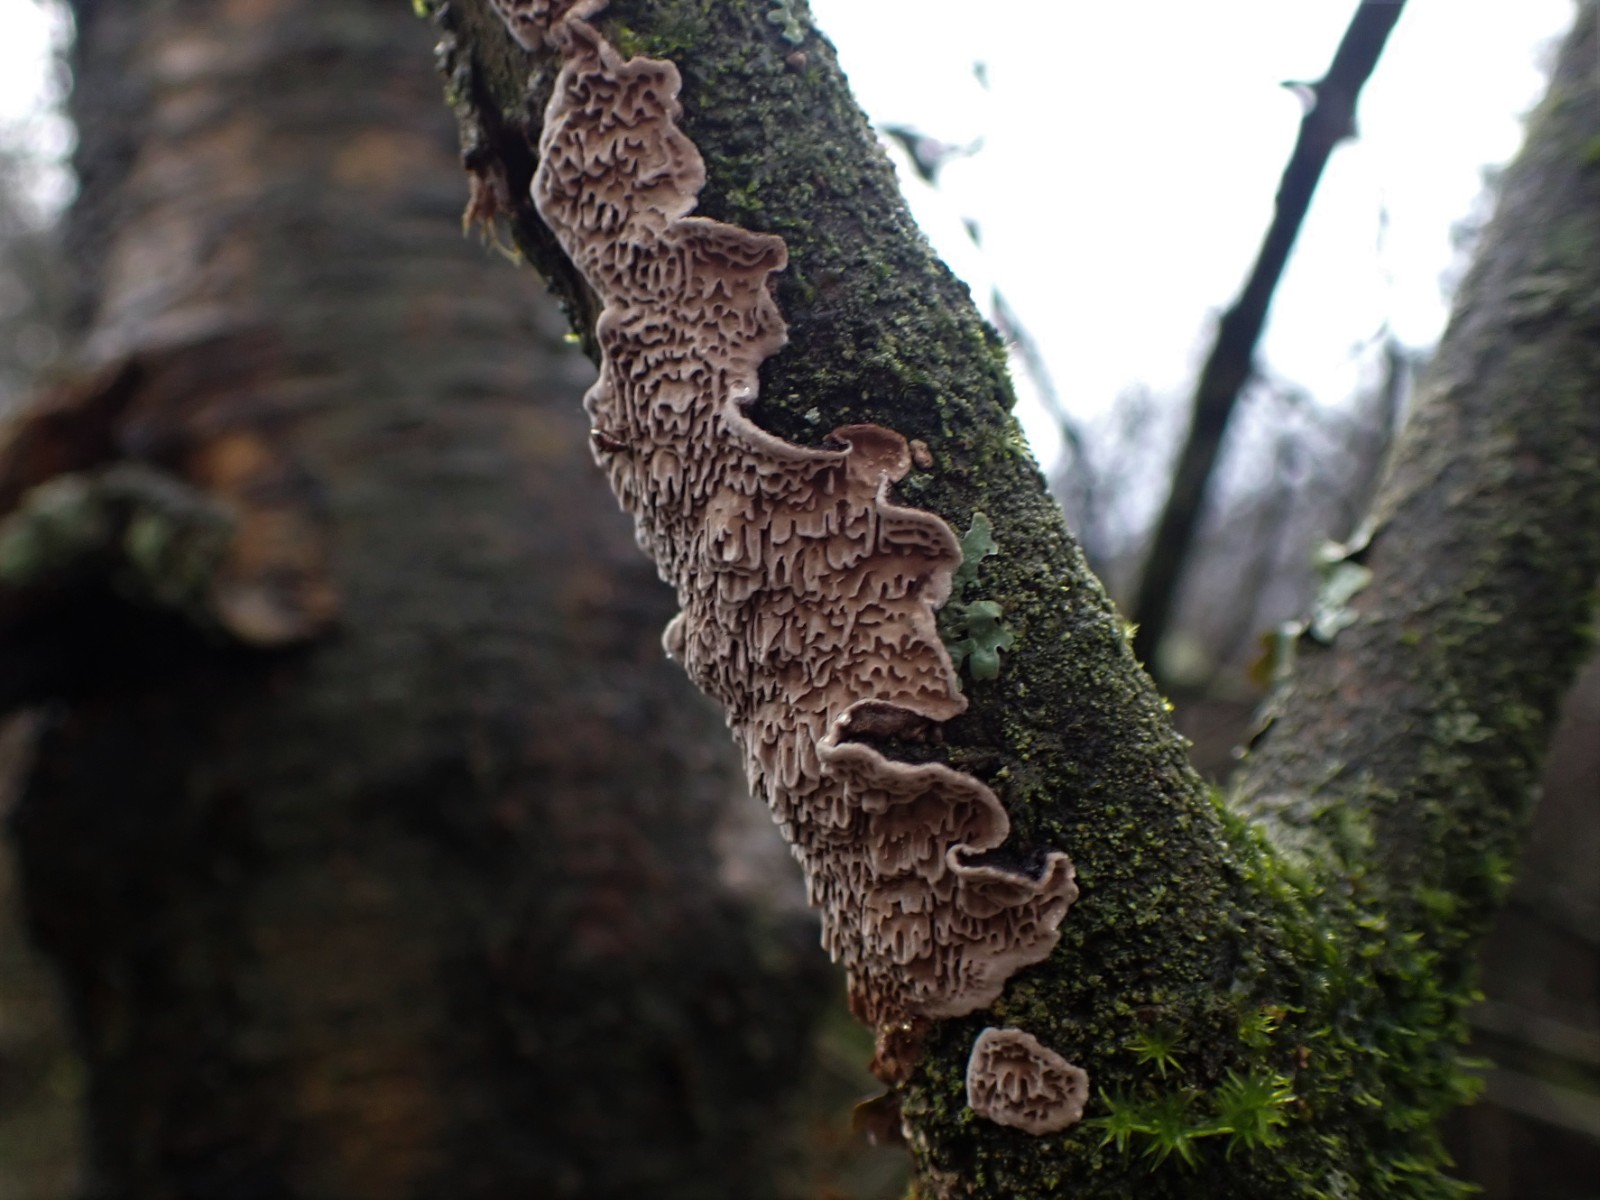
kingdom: Fungi
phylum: Basidiomycota
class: Agaricomycetes
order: Polyporales
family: Polyporaceae
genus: Podofomes
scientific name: Podofomes mollis
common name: blød begporesvamp
